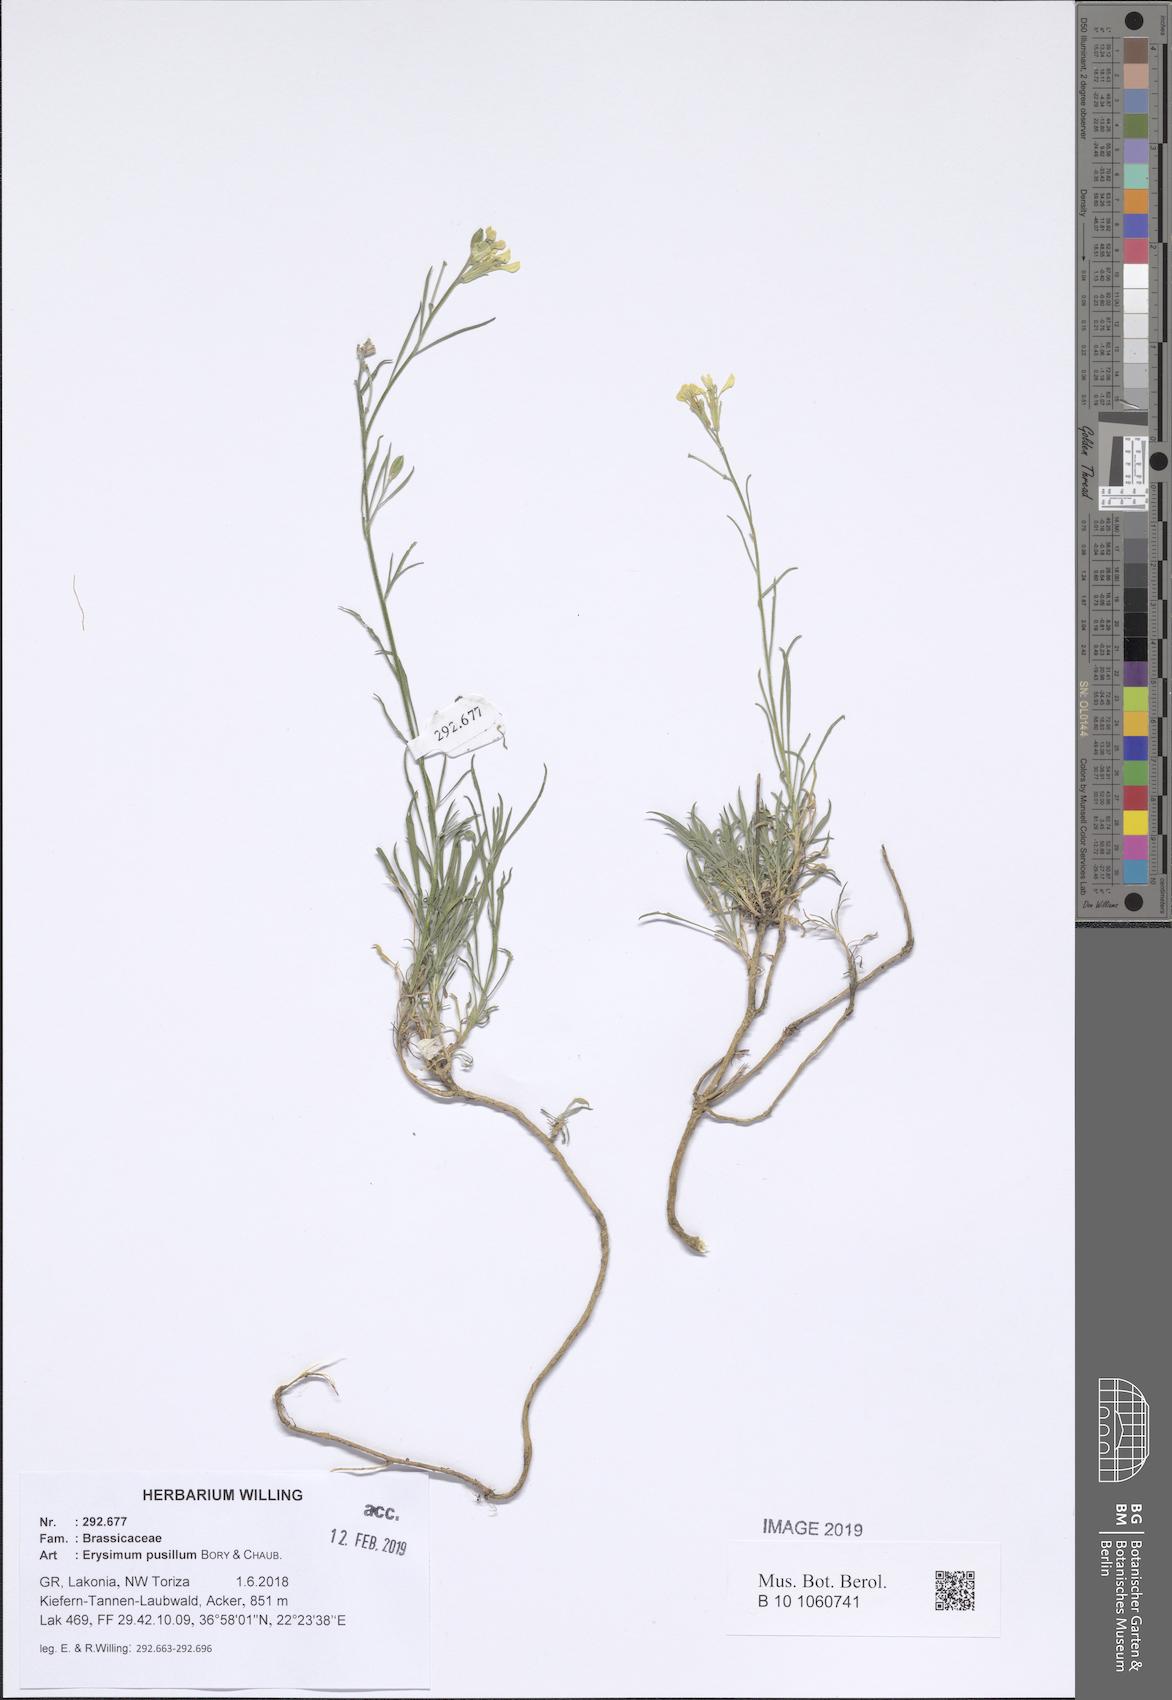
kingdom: Plantae
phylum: Tracheophyta
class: Magnoliopsida
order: Brassicales
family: Brassicaceae
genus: Erysimum
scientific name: Erysimum pusillum
